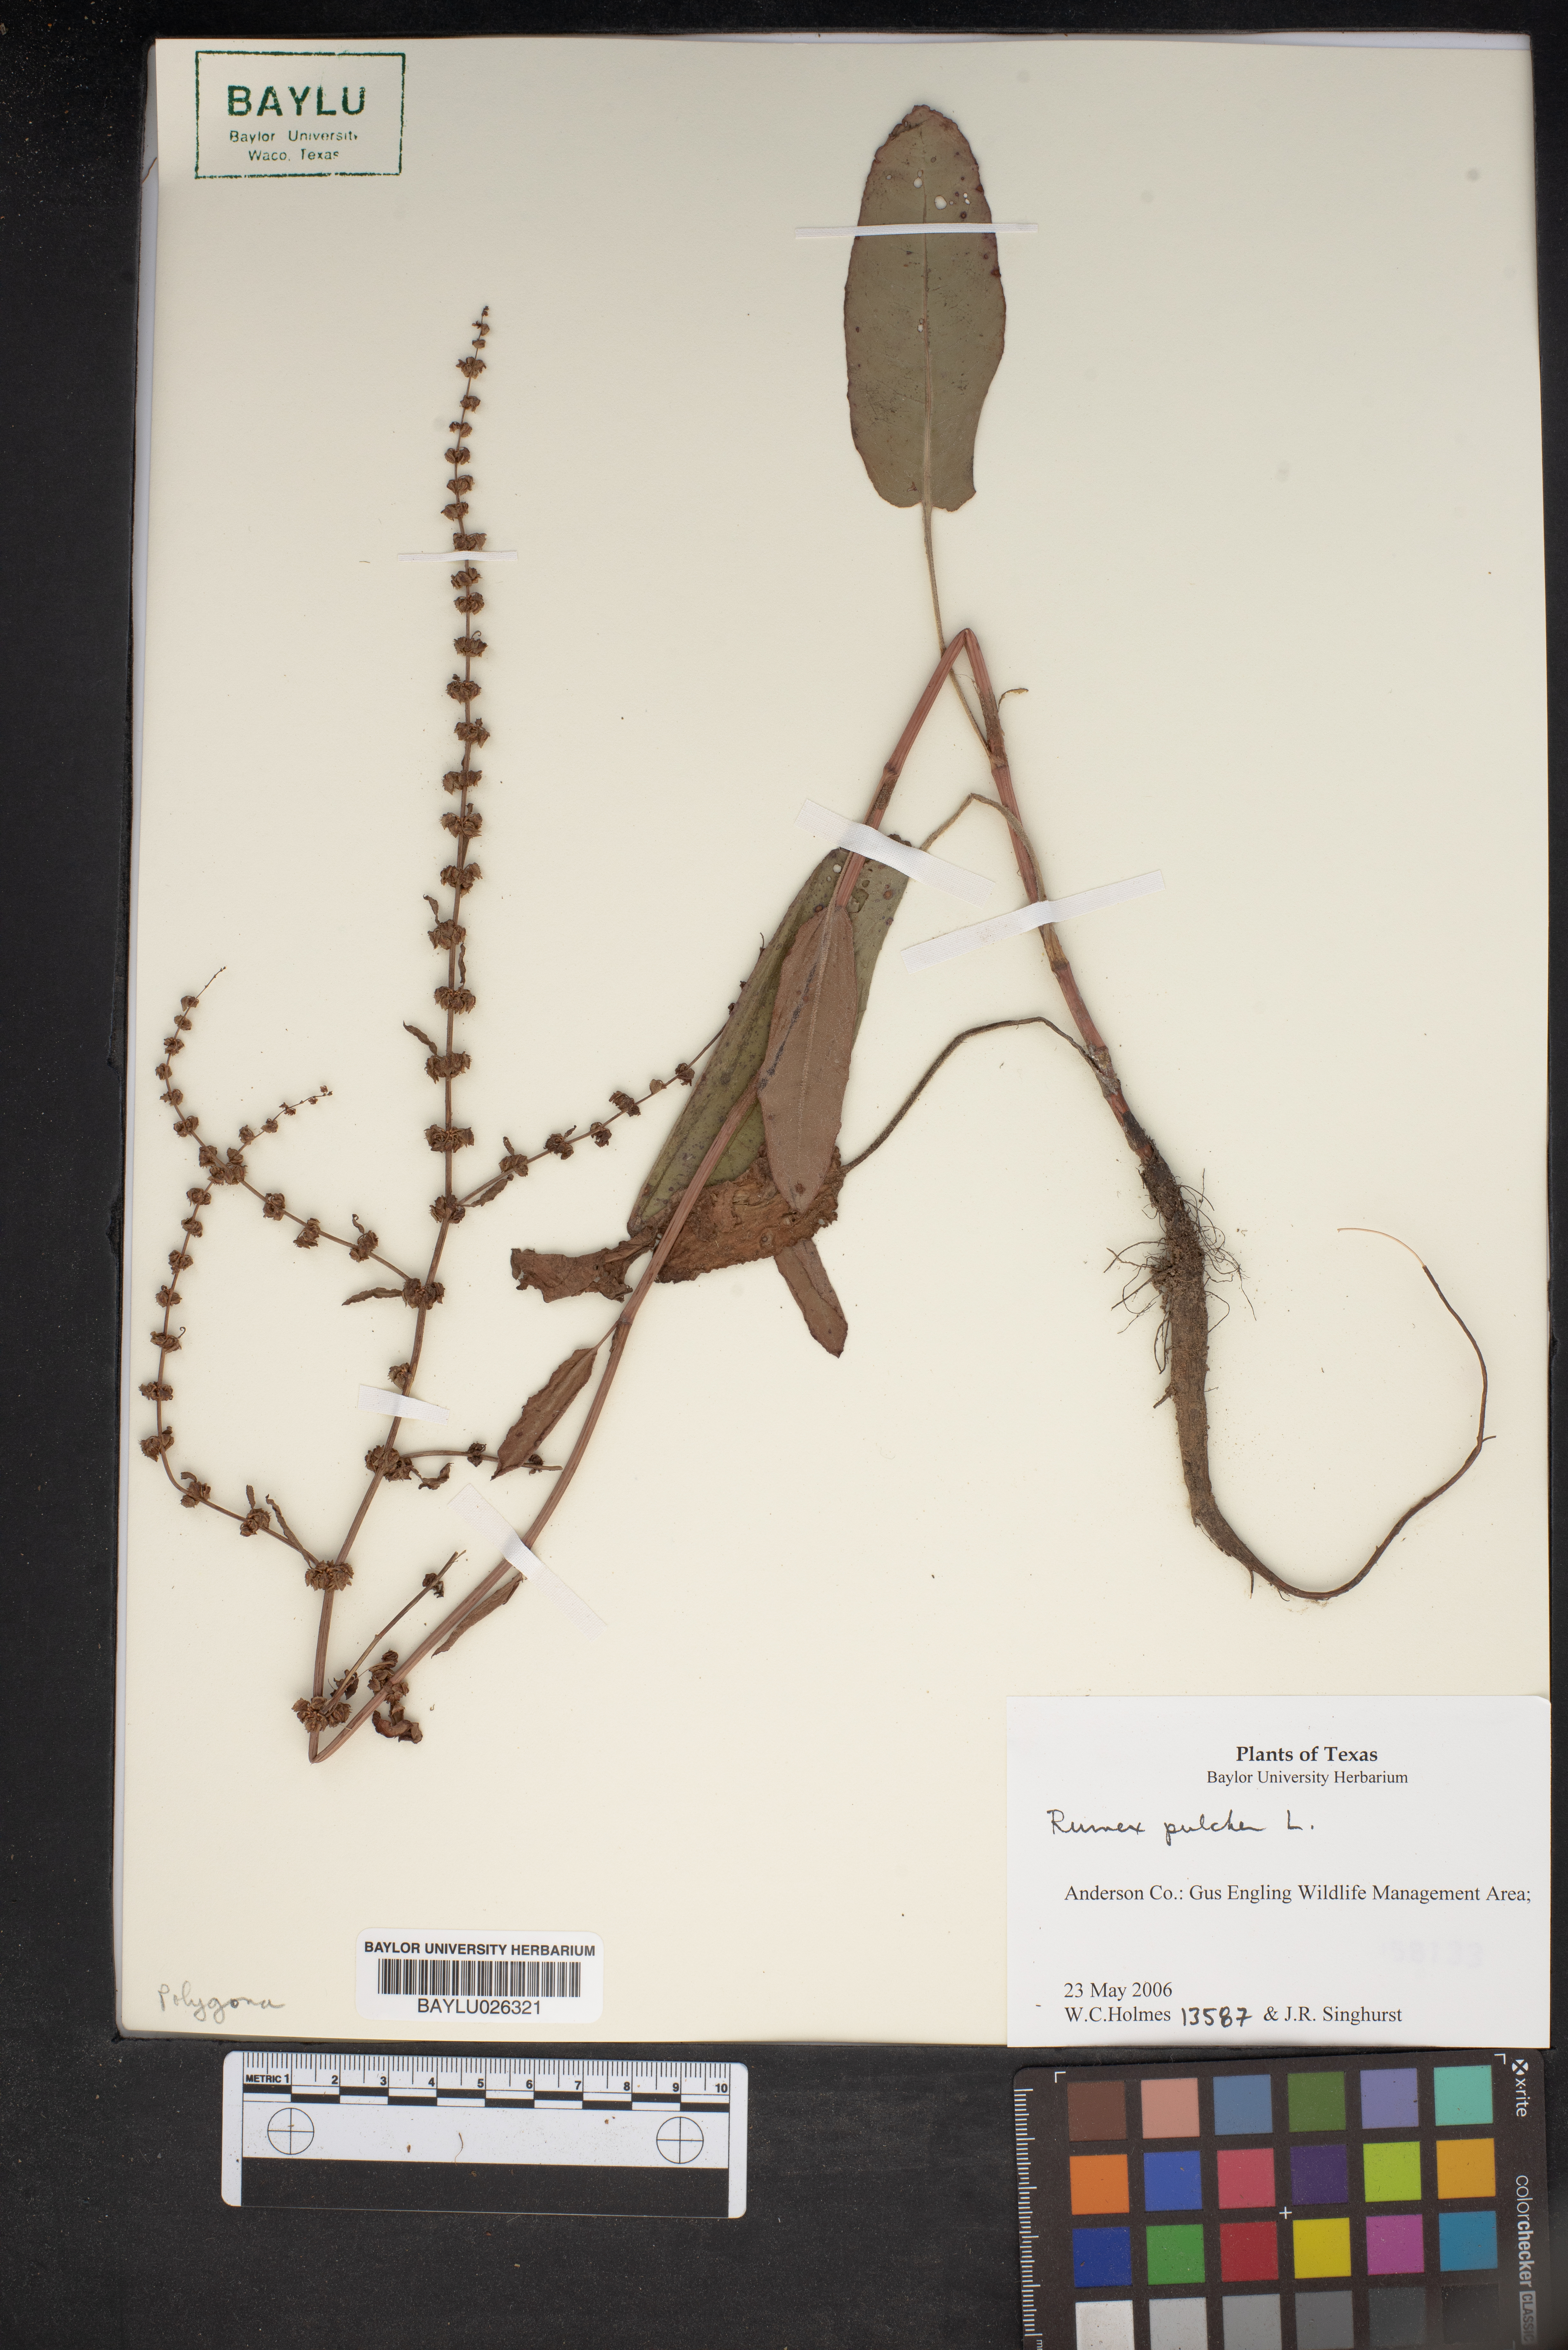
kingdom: Plantae
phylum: Tracheophyta
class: Magnoliopsida
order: Caryophyllales
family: Polygonaceae
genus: Rumex
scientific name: Rumex pulcher
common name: Fiddle dock
